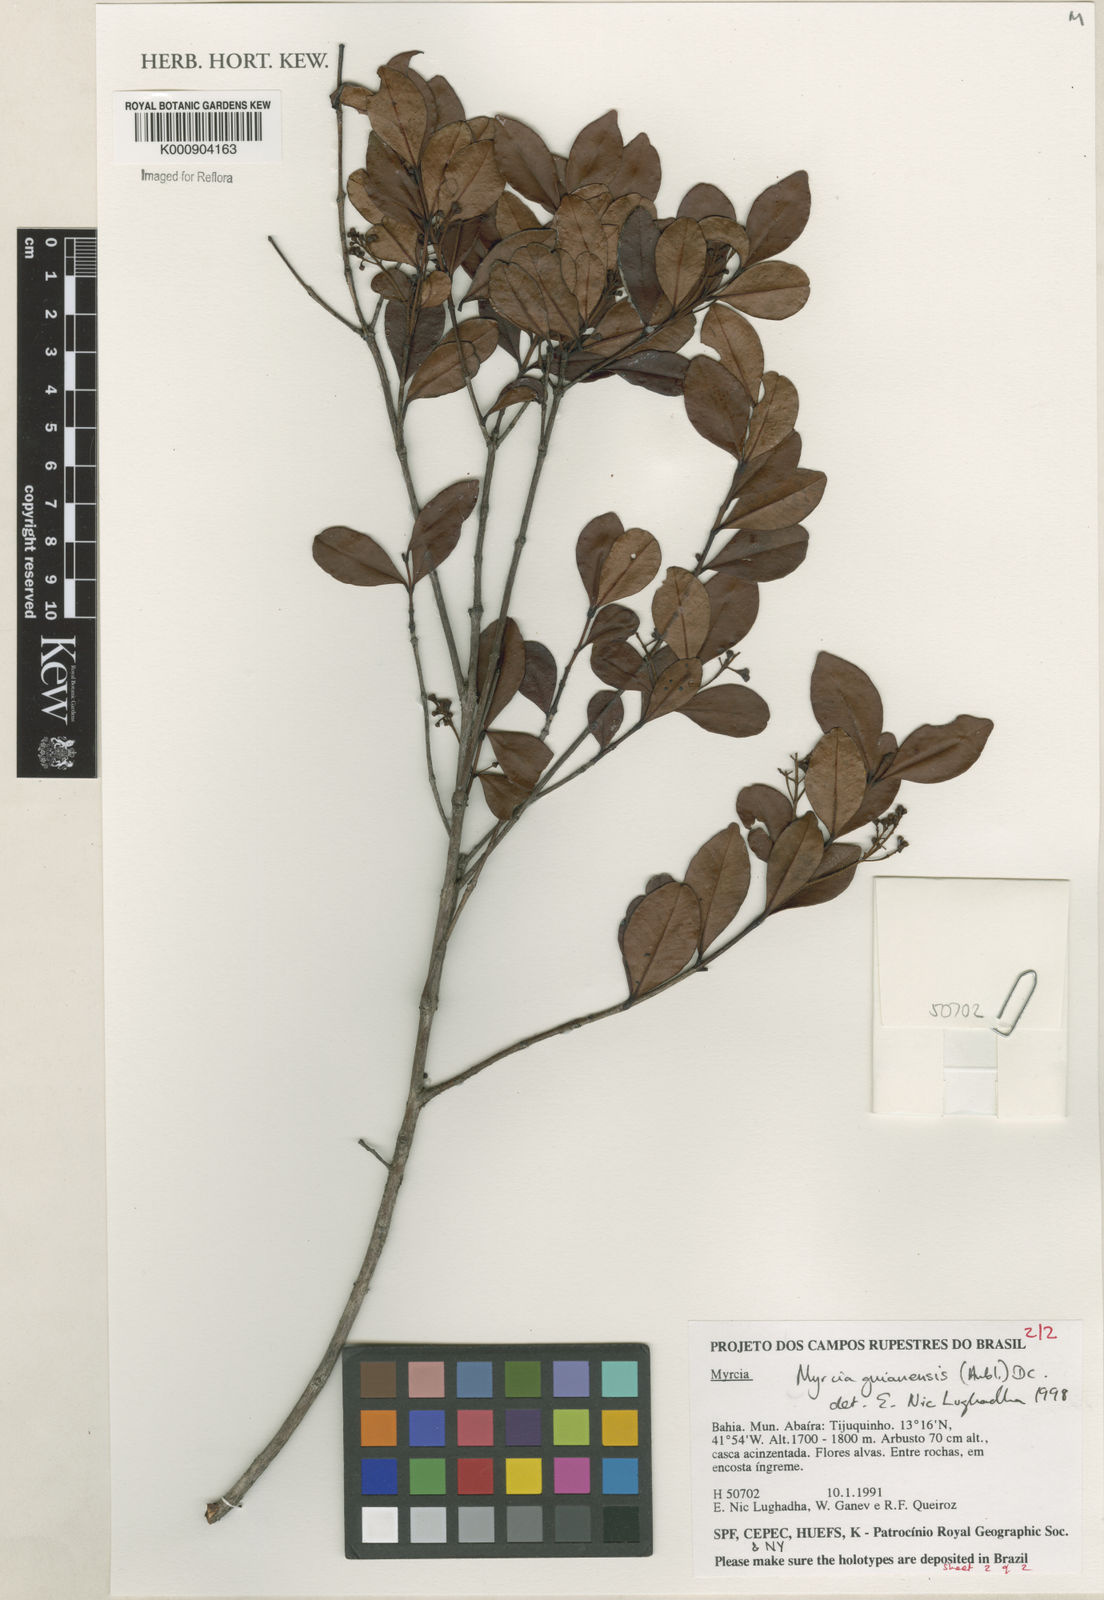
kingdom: Plantae
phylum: Tracheophyta
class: Magnoliopsida
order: Myrtales
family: Myrtaceae
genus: Myrcia
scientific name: Myrcia guianensis
